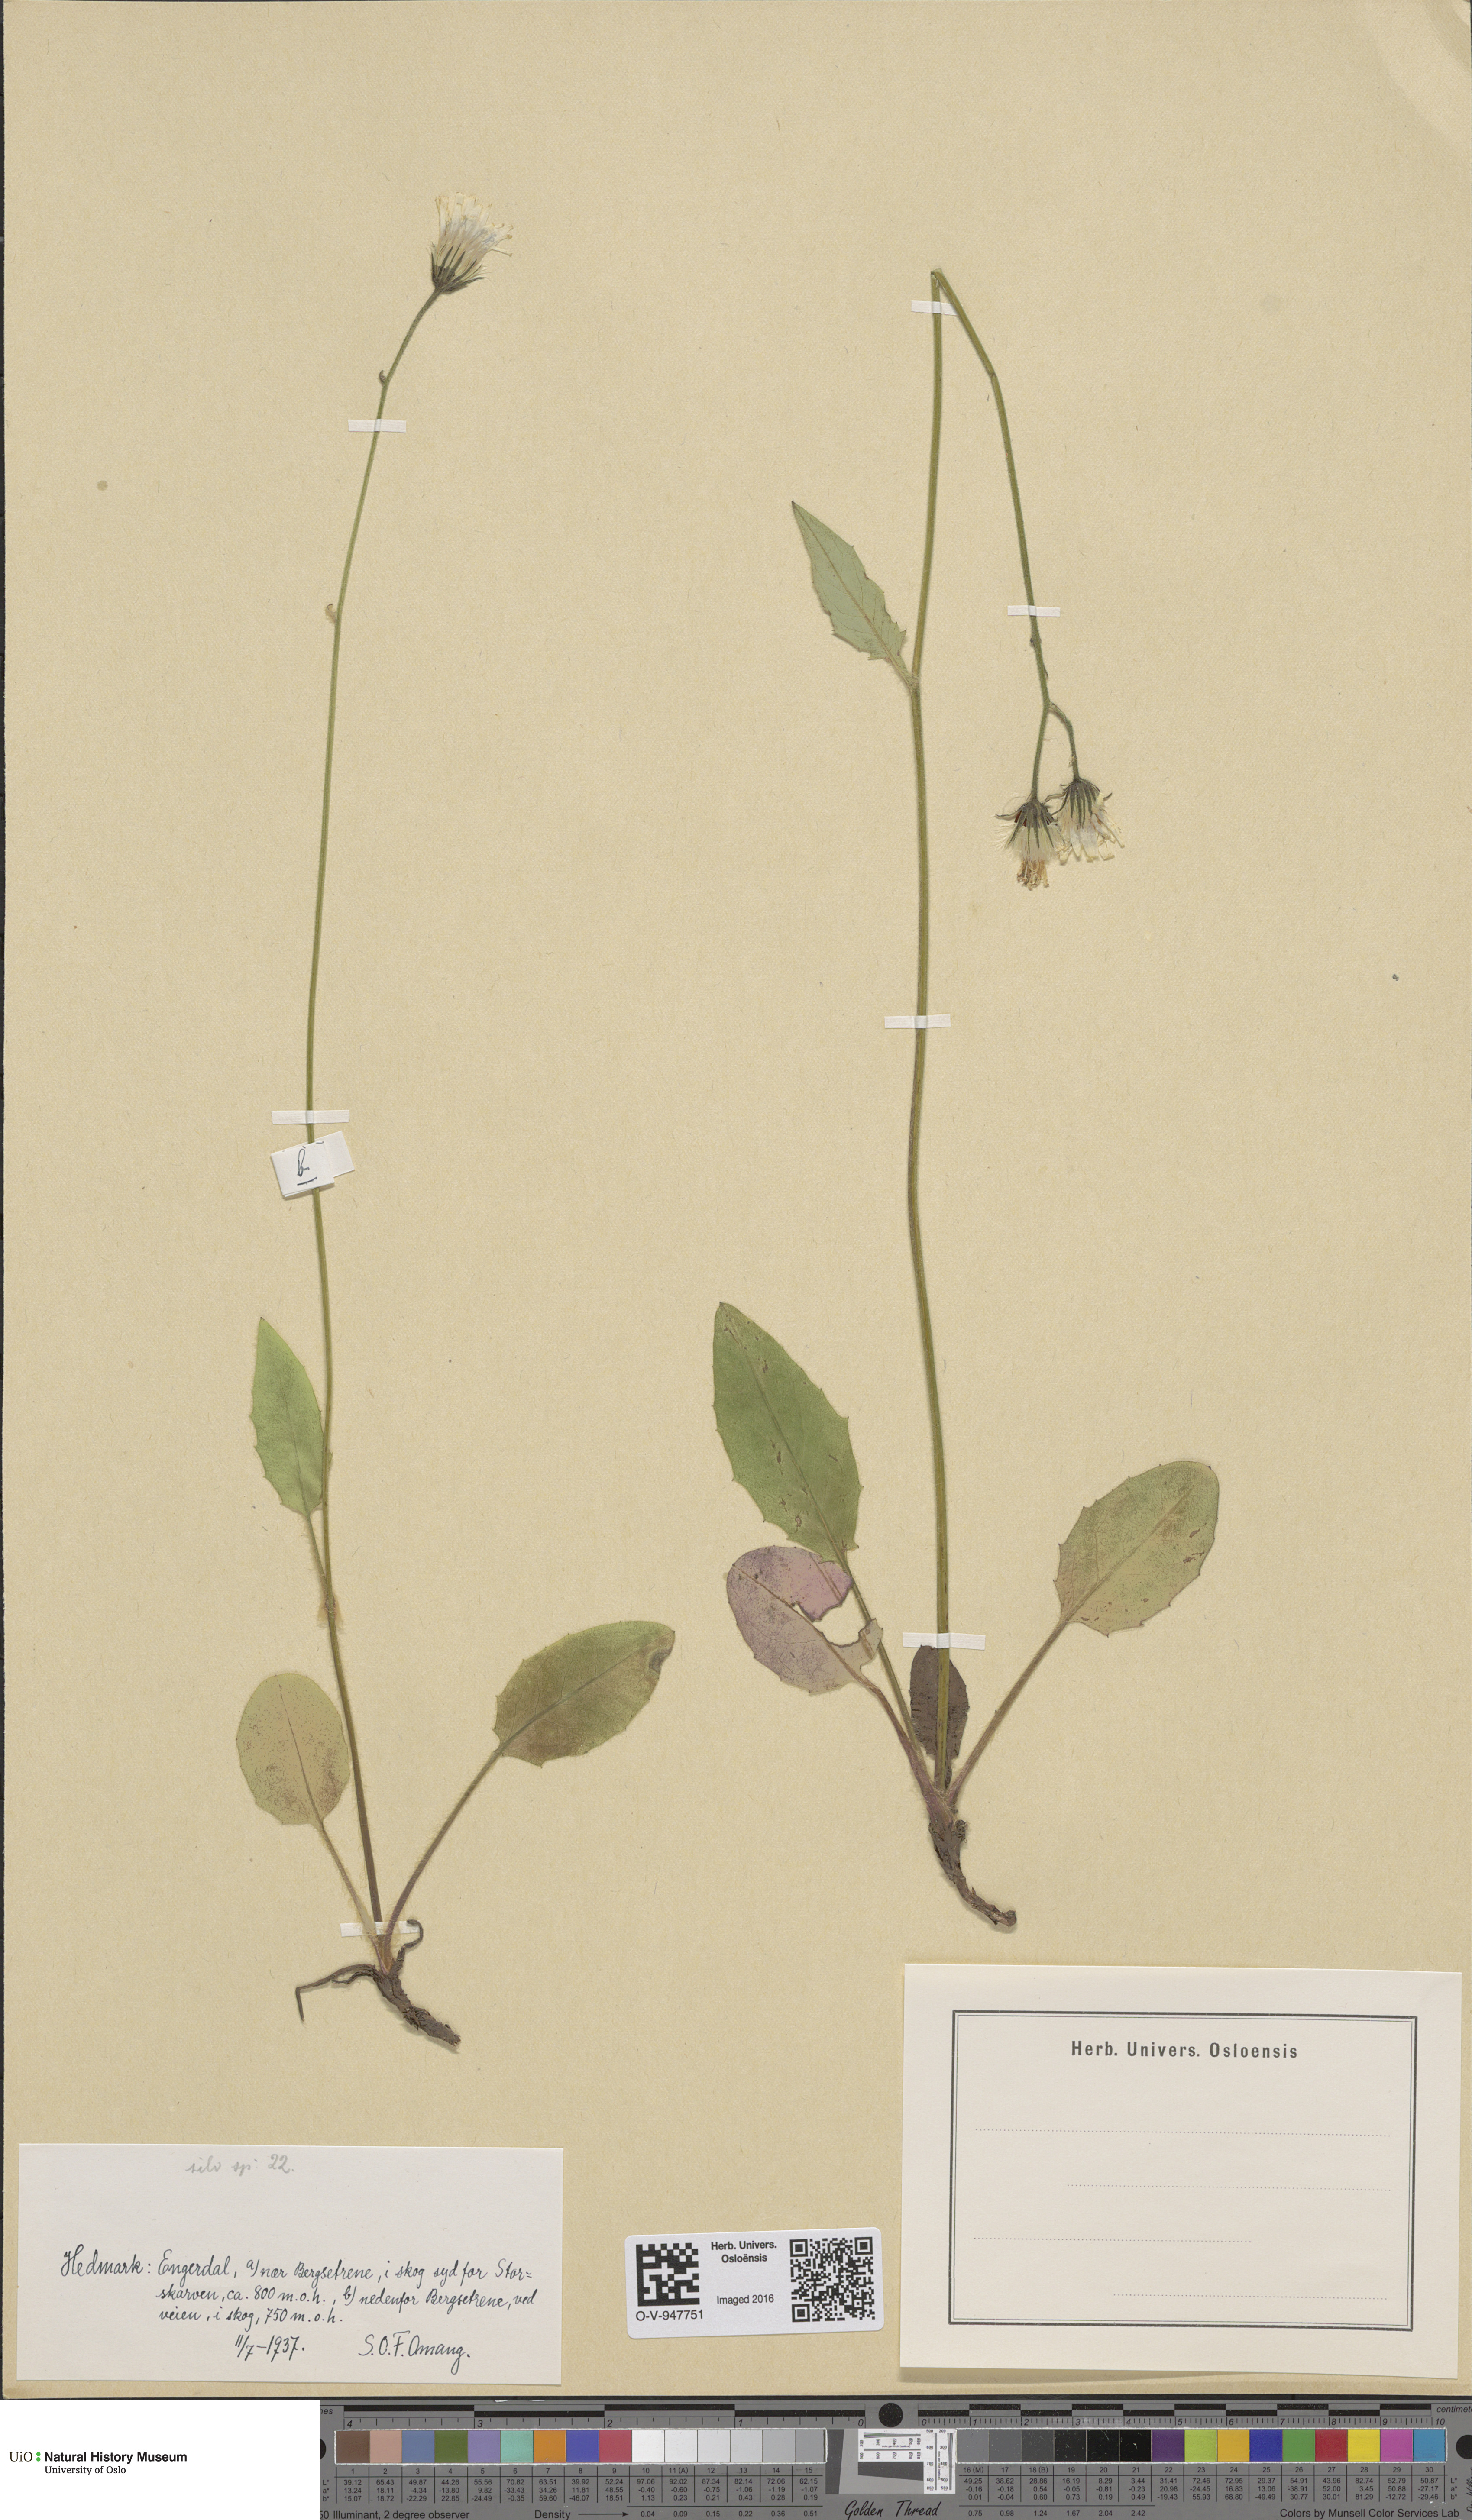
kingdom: Plantae
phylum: Tracheophyta
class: Magnoliopsida
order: Asterales
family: Asteraceae
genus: Hieracium
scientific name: Hieracium
